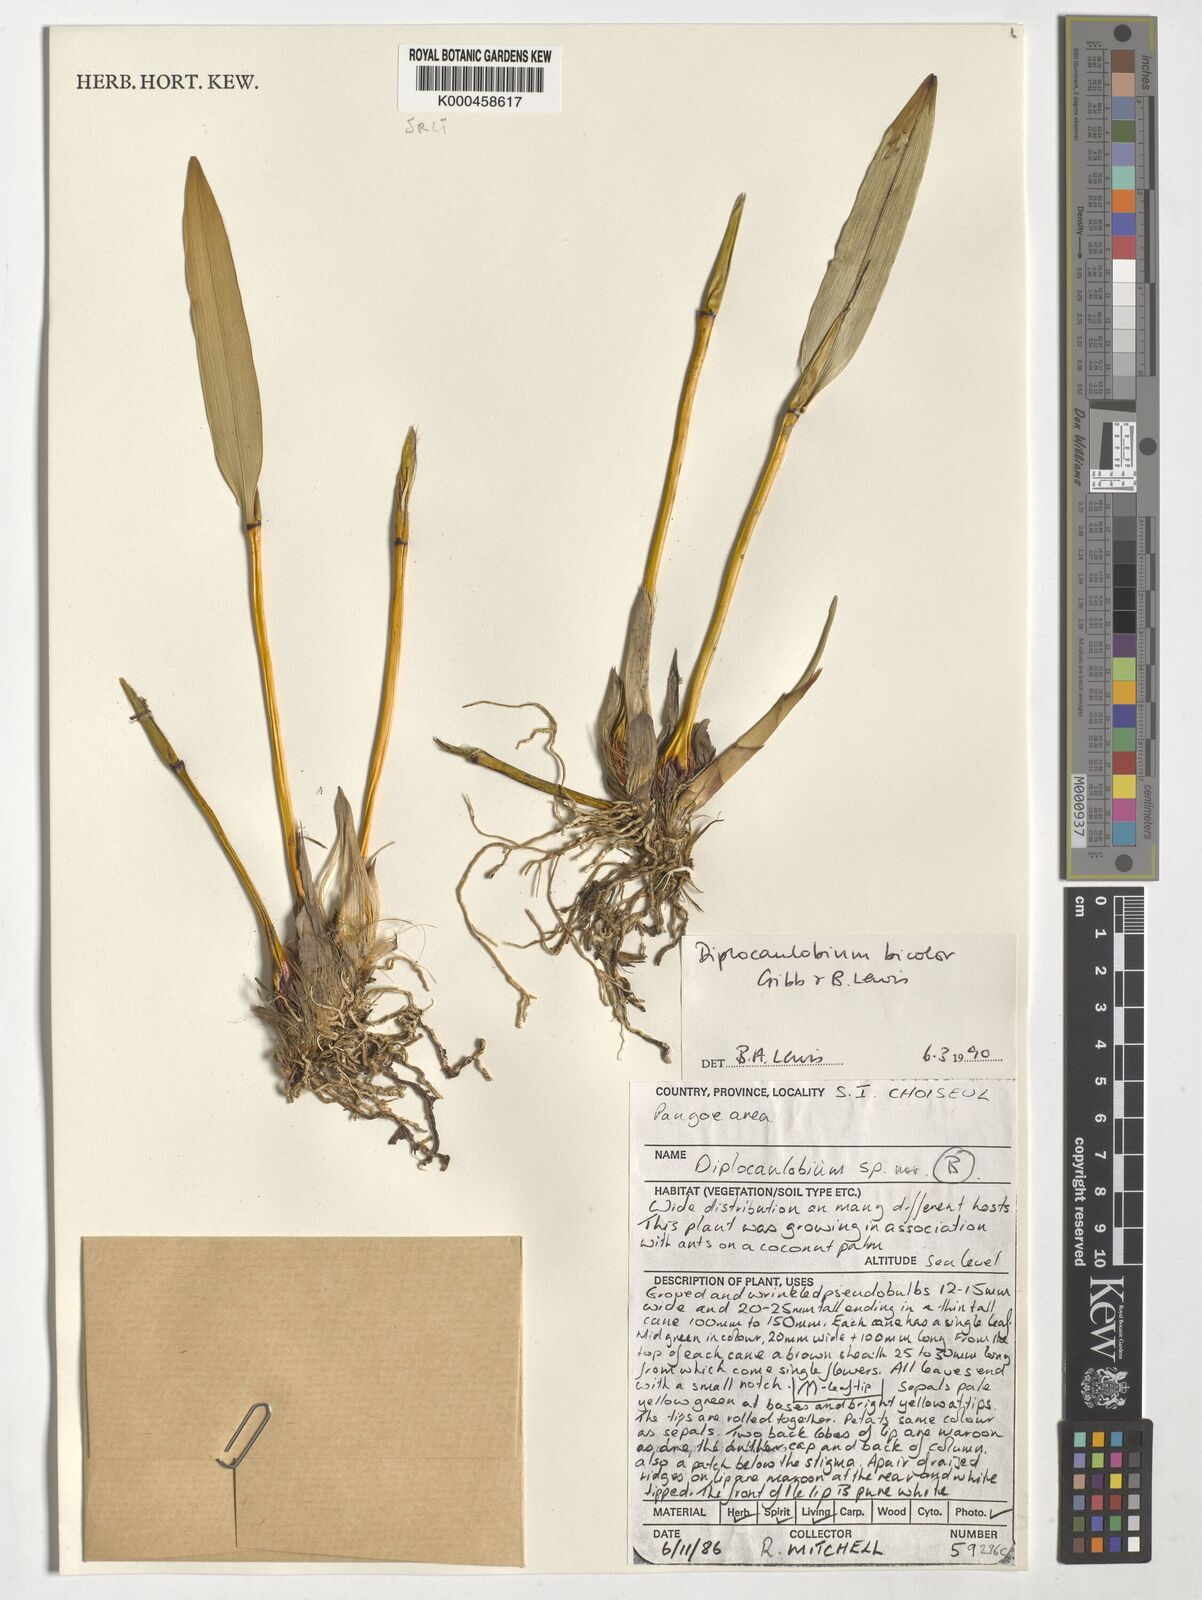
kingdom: Plantae
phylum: Tracheophyta
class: Liliopsida
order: Asparagales
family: Orchidaceae
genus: Dendrobium
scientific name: Dendrobium lewisiae
